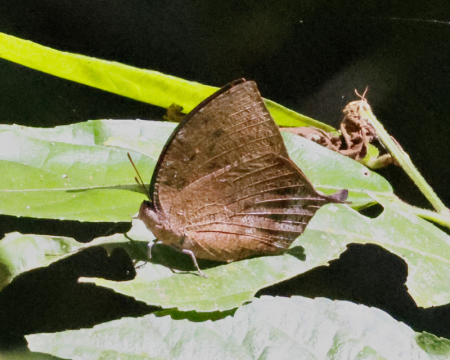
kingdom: Animalia
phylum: Arthropoda
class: Insecta
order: Lepidoptera
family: Nymphalidae
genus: Memphis
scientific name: Memphis moruus
